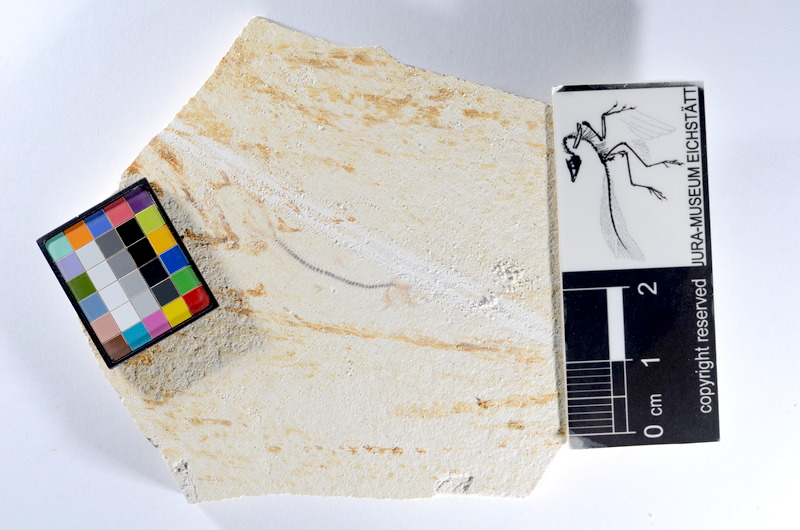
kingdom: Animalia
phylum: Chordata
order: Salmoniformes
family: Orthogonikleithridae
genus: Orthogonikleithrus
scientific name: Orthogonikleithrus hoelli
